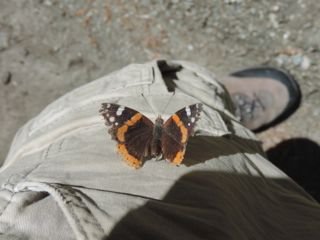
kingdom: Animalia
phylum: Arthropoda
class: Insecta
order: Lepidoptera
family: Nymphalidae
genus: Vanessa
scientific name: Vanessa atalanta
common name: Red Admiral
